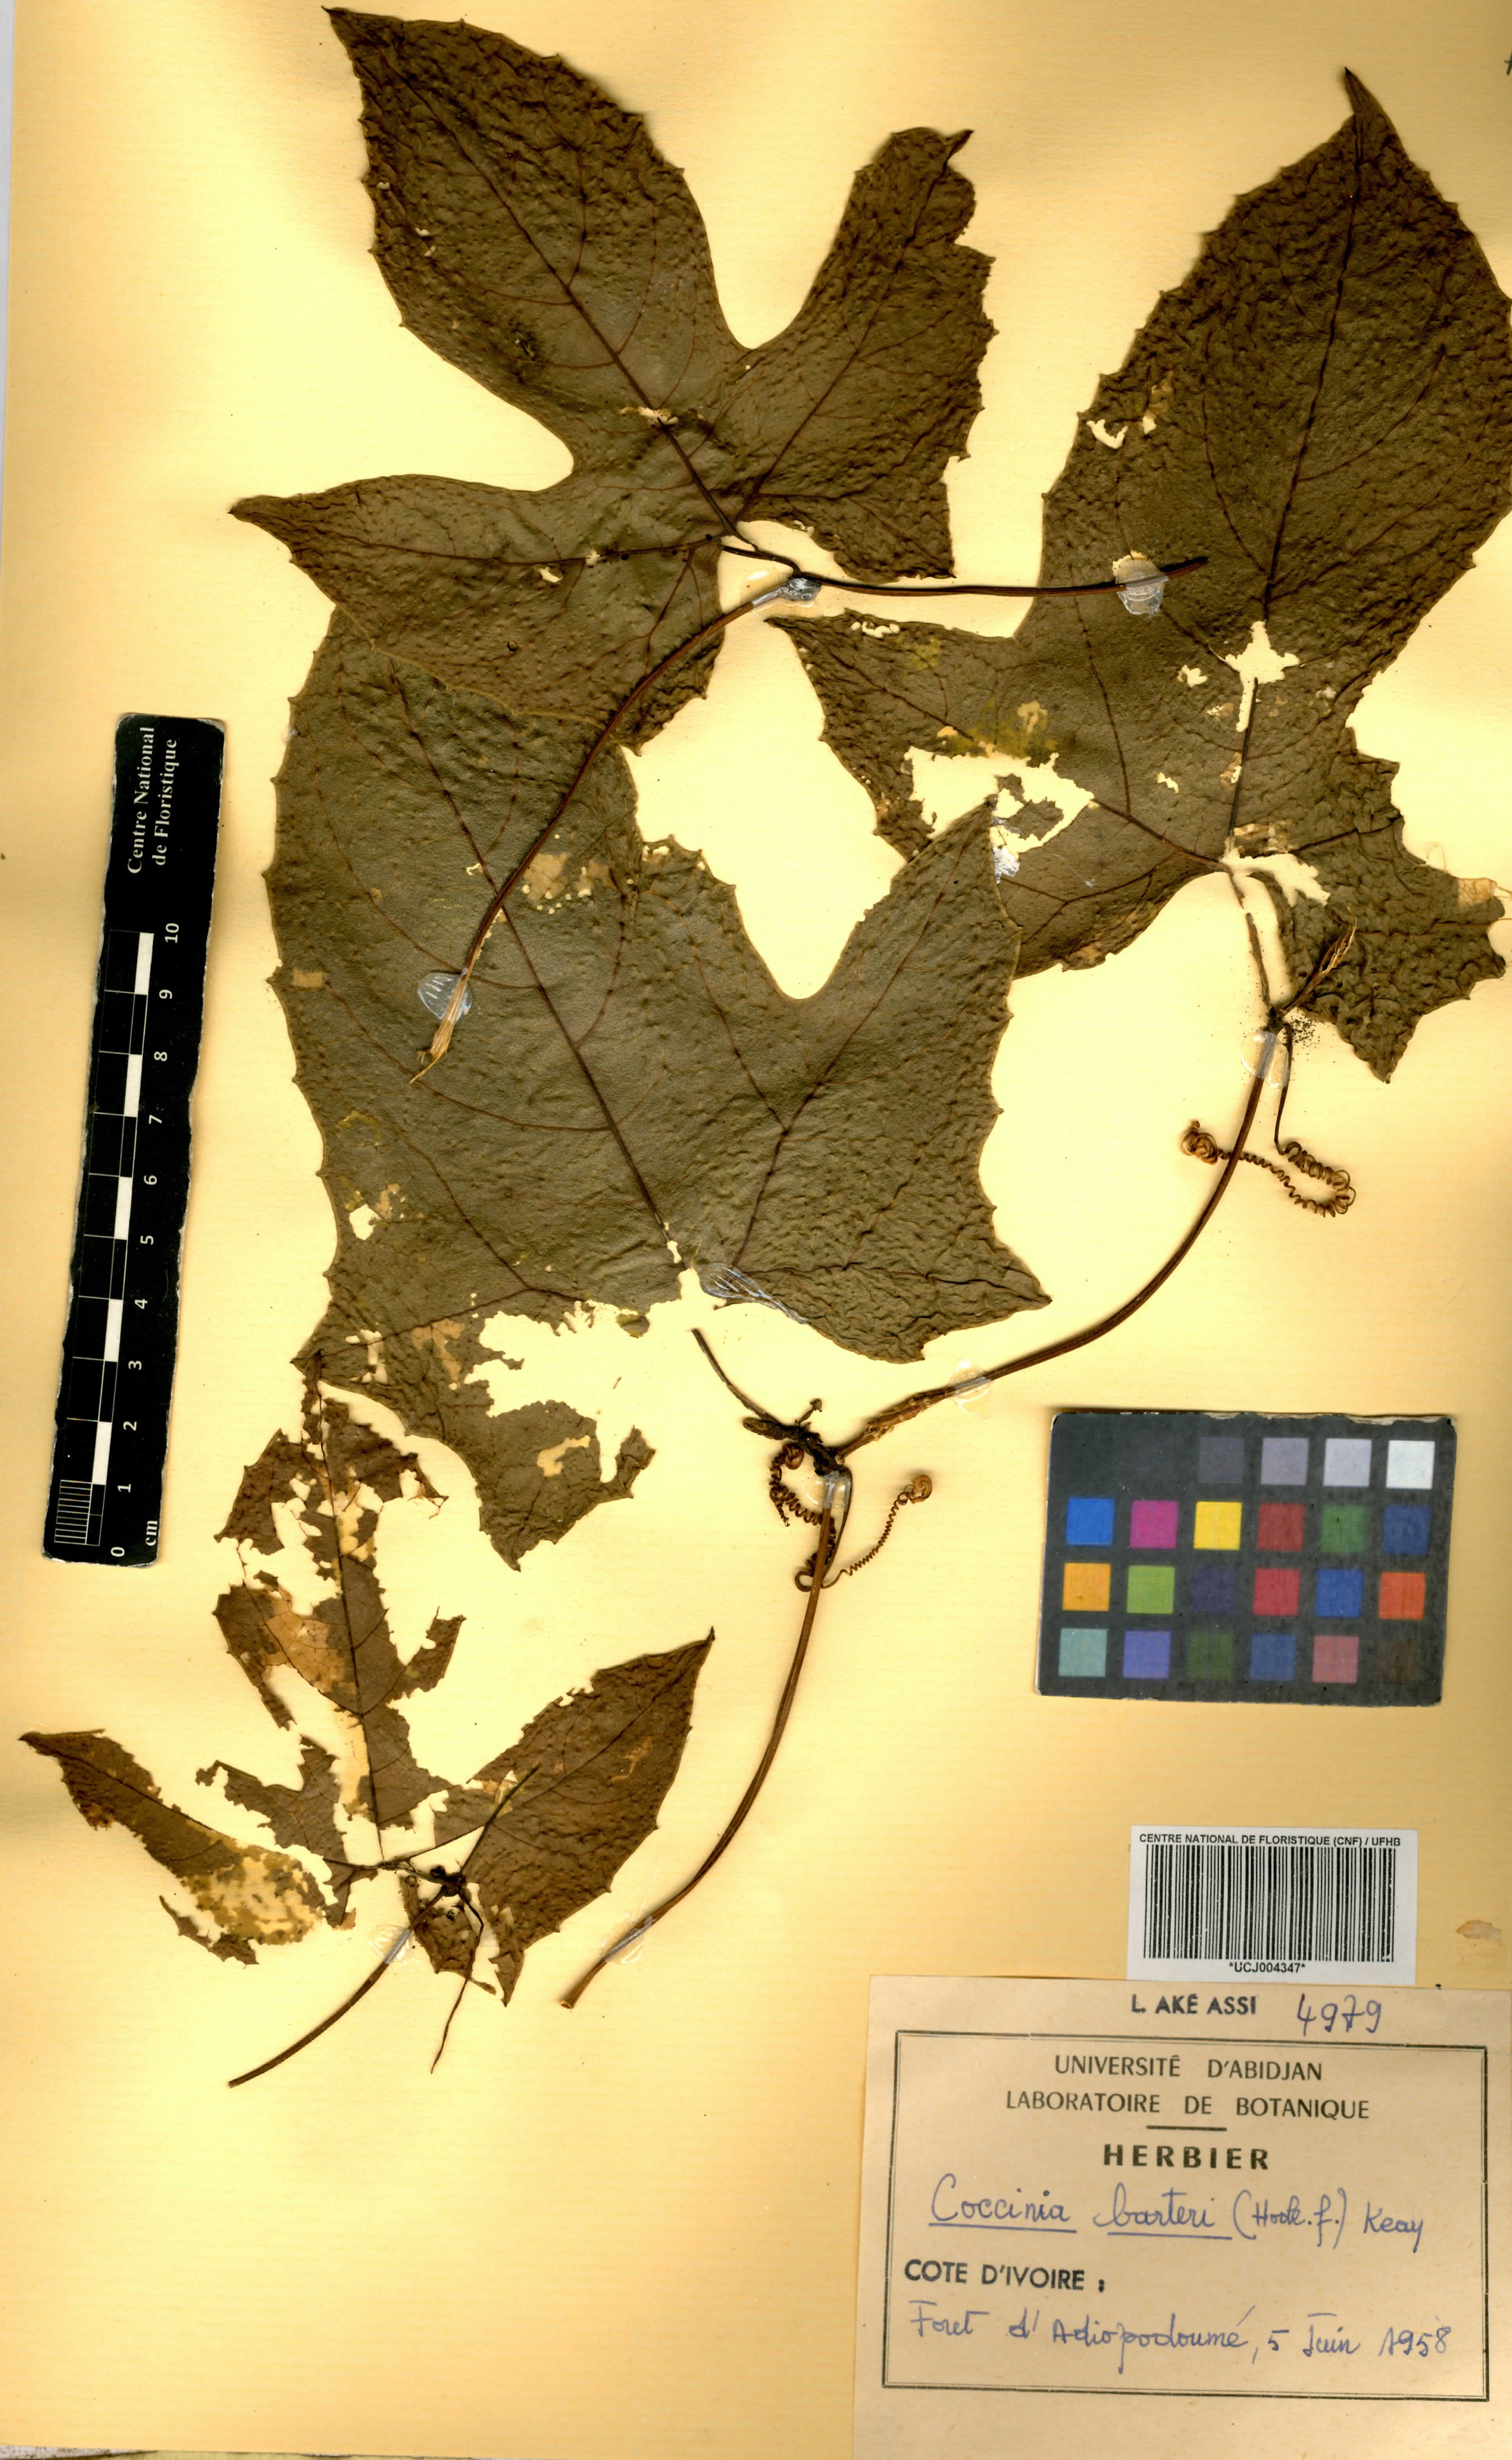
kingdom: Plantae
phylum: Tracheophyta
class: Magnoliopsida
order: Cucurbitales
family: Cucurbitaceae
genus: Coccinia
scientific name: Coccinia barteri
